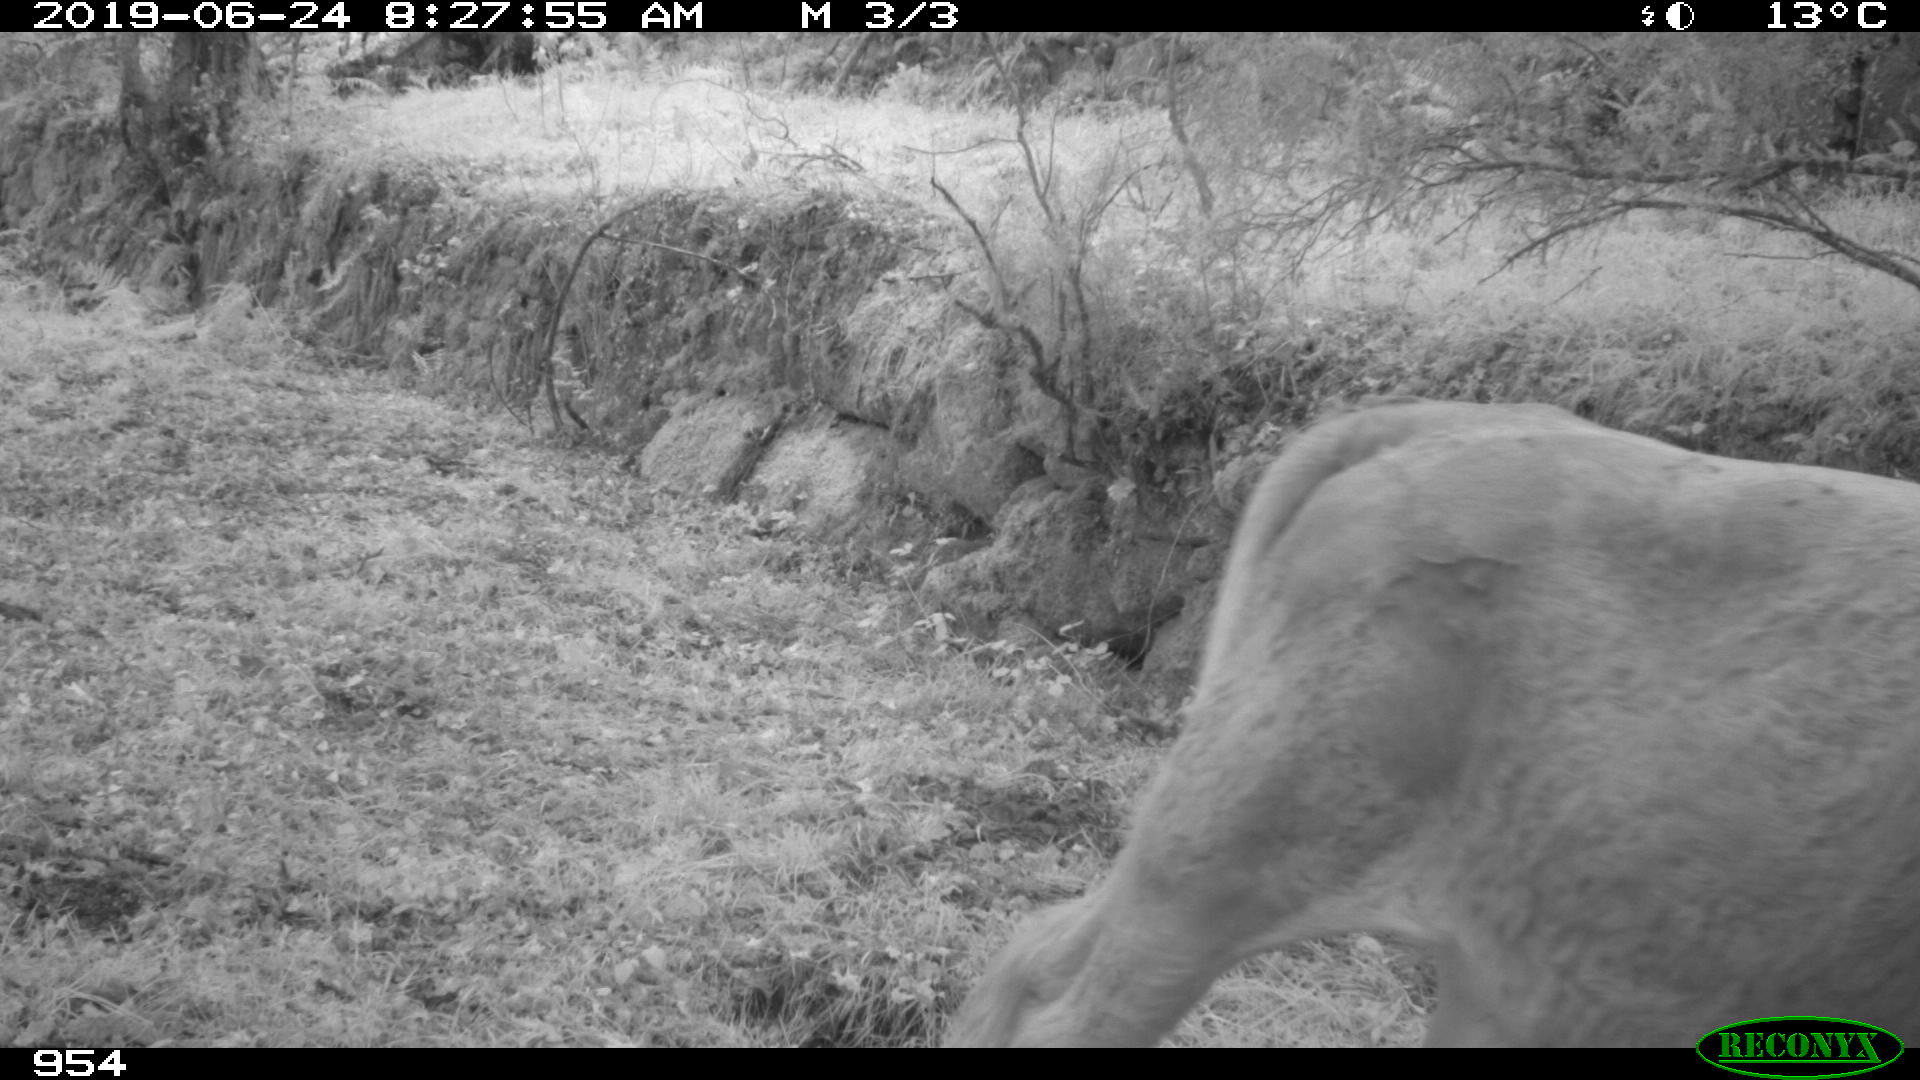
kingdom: Animalia
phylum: Chordata
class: Mammalia
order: Artiodactyla
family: Bovidae
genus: Bos
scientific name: Bos taurus
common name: Domesticated cattle
